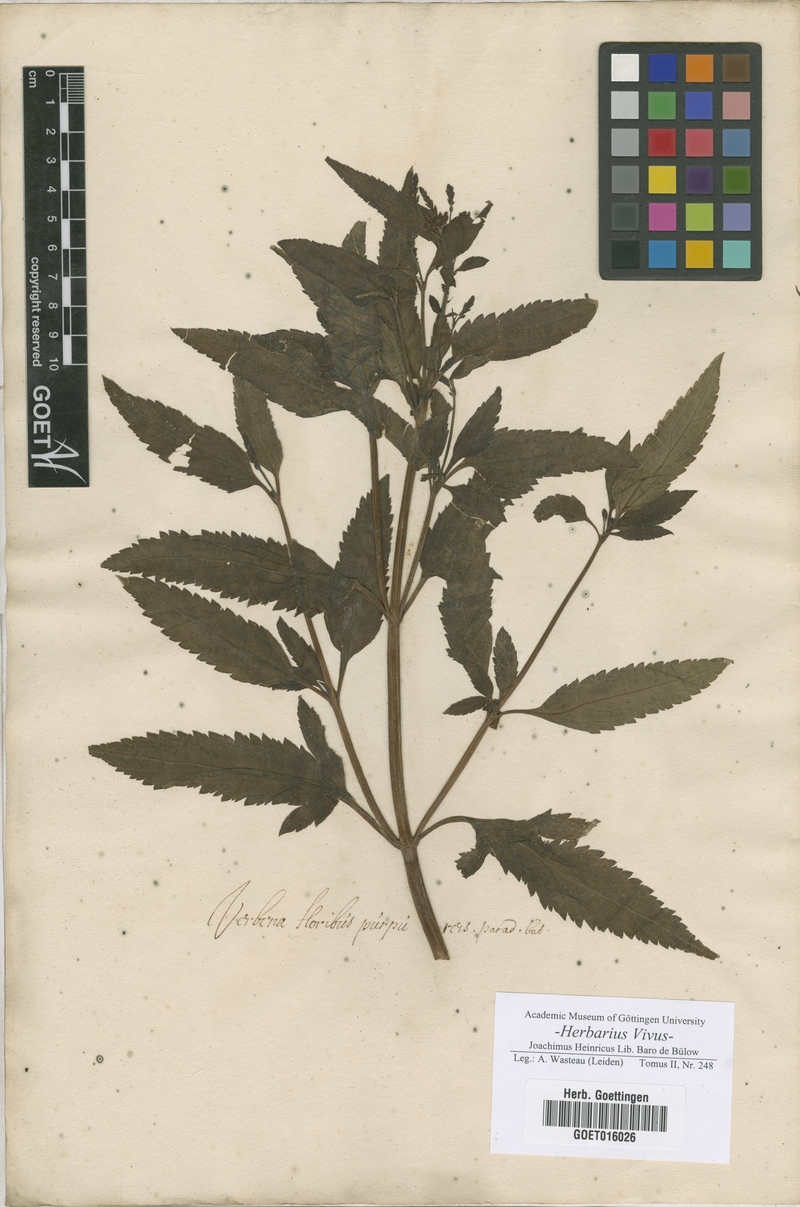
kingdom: Plantae
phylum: Tracheophyta
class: Magnoliopsida
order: Lamiales
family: Verbenaceae
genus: Verbena
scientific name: Verbena
